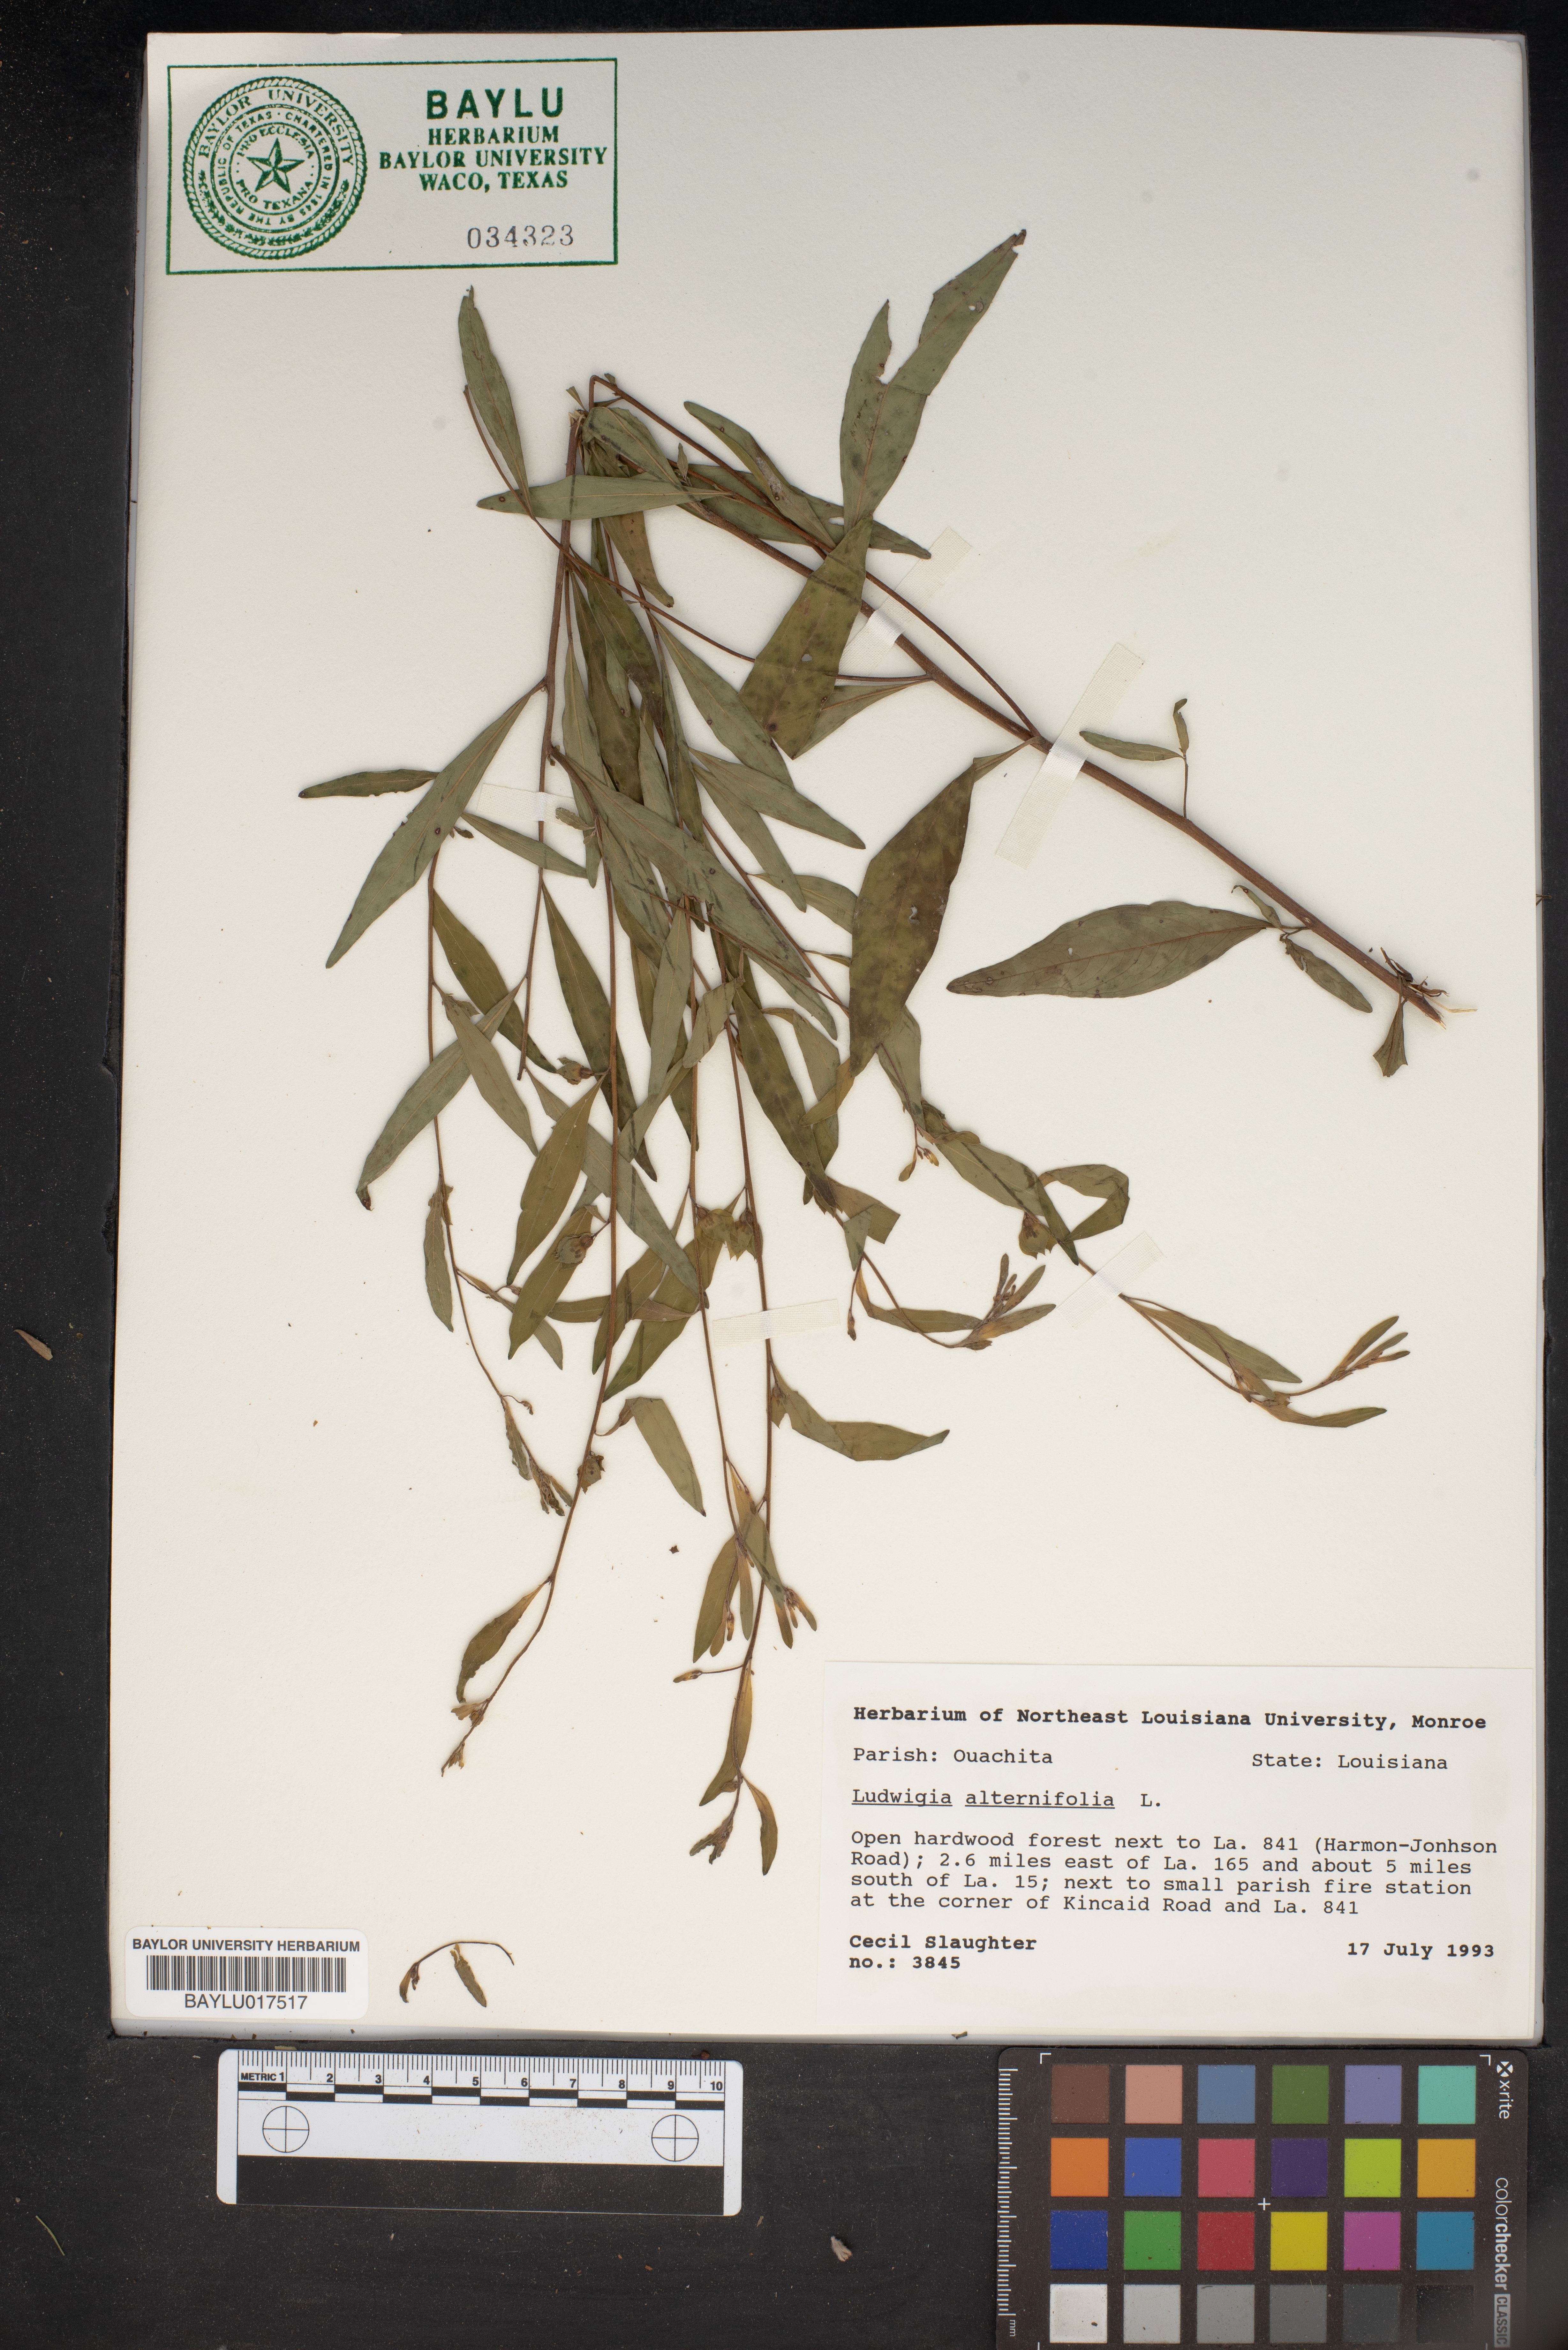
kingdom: Plantae
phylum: Tracheophyta
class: Magnoliopsida
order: Myrtales
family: Onagraceae
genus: Ludwigia
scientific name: Ludwigia alternifolia
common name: Rattlebox
